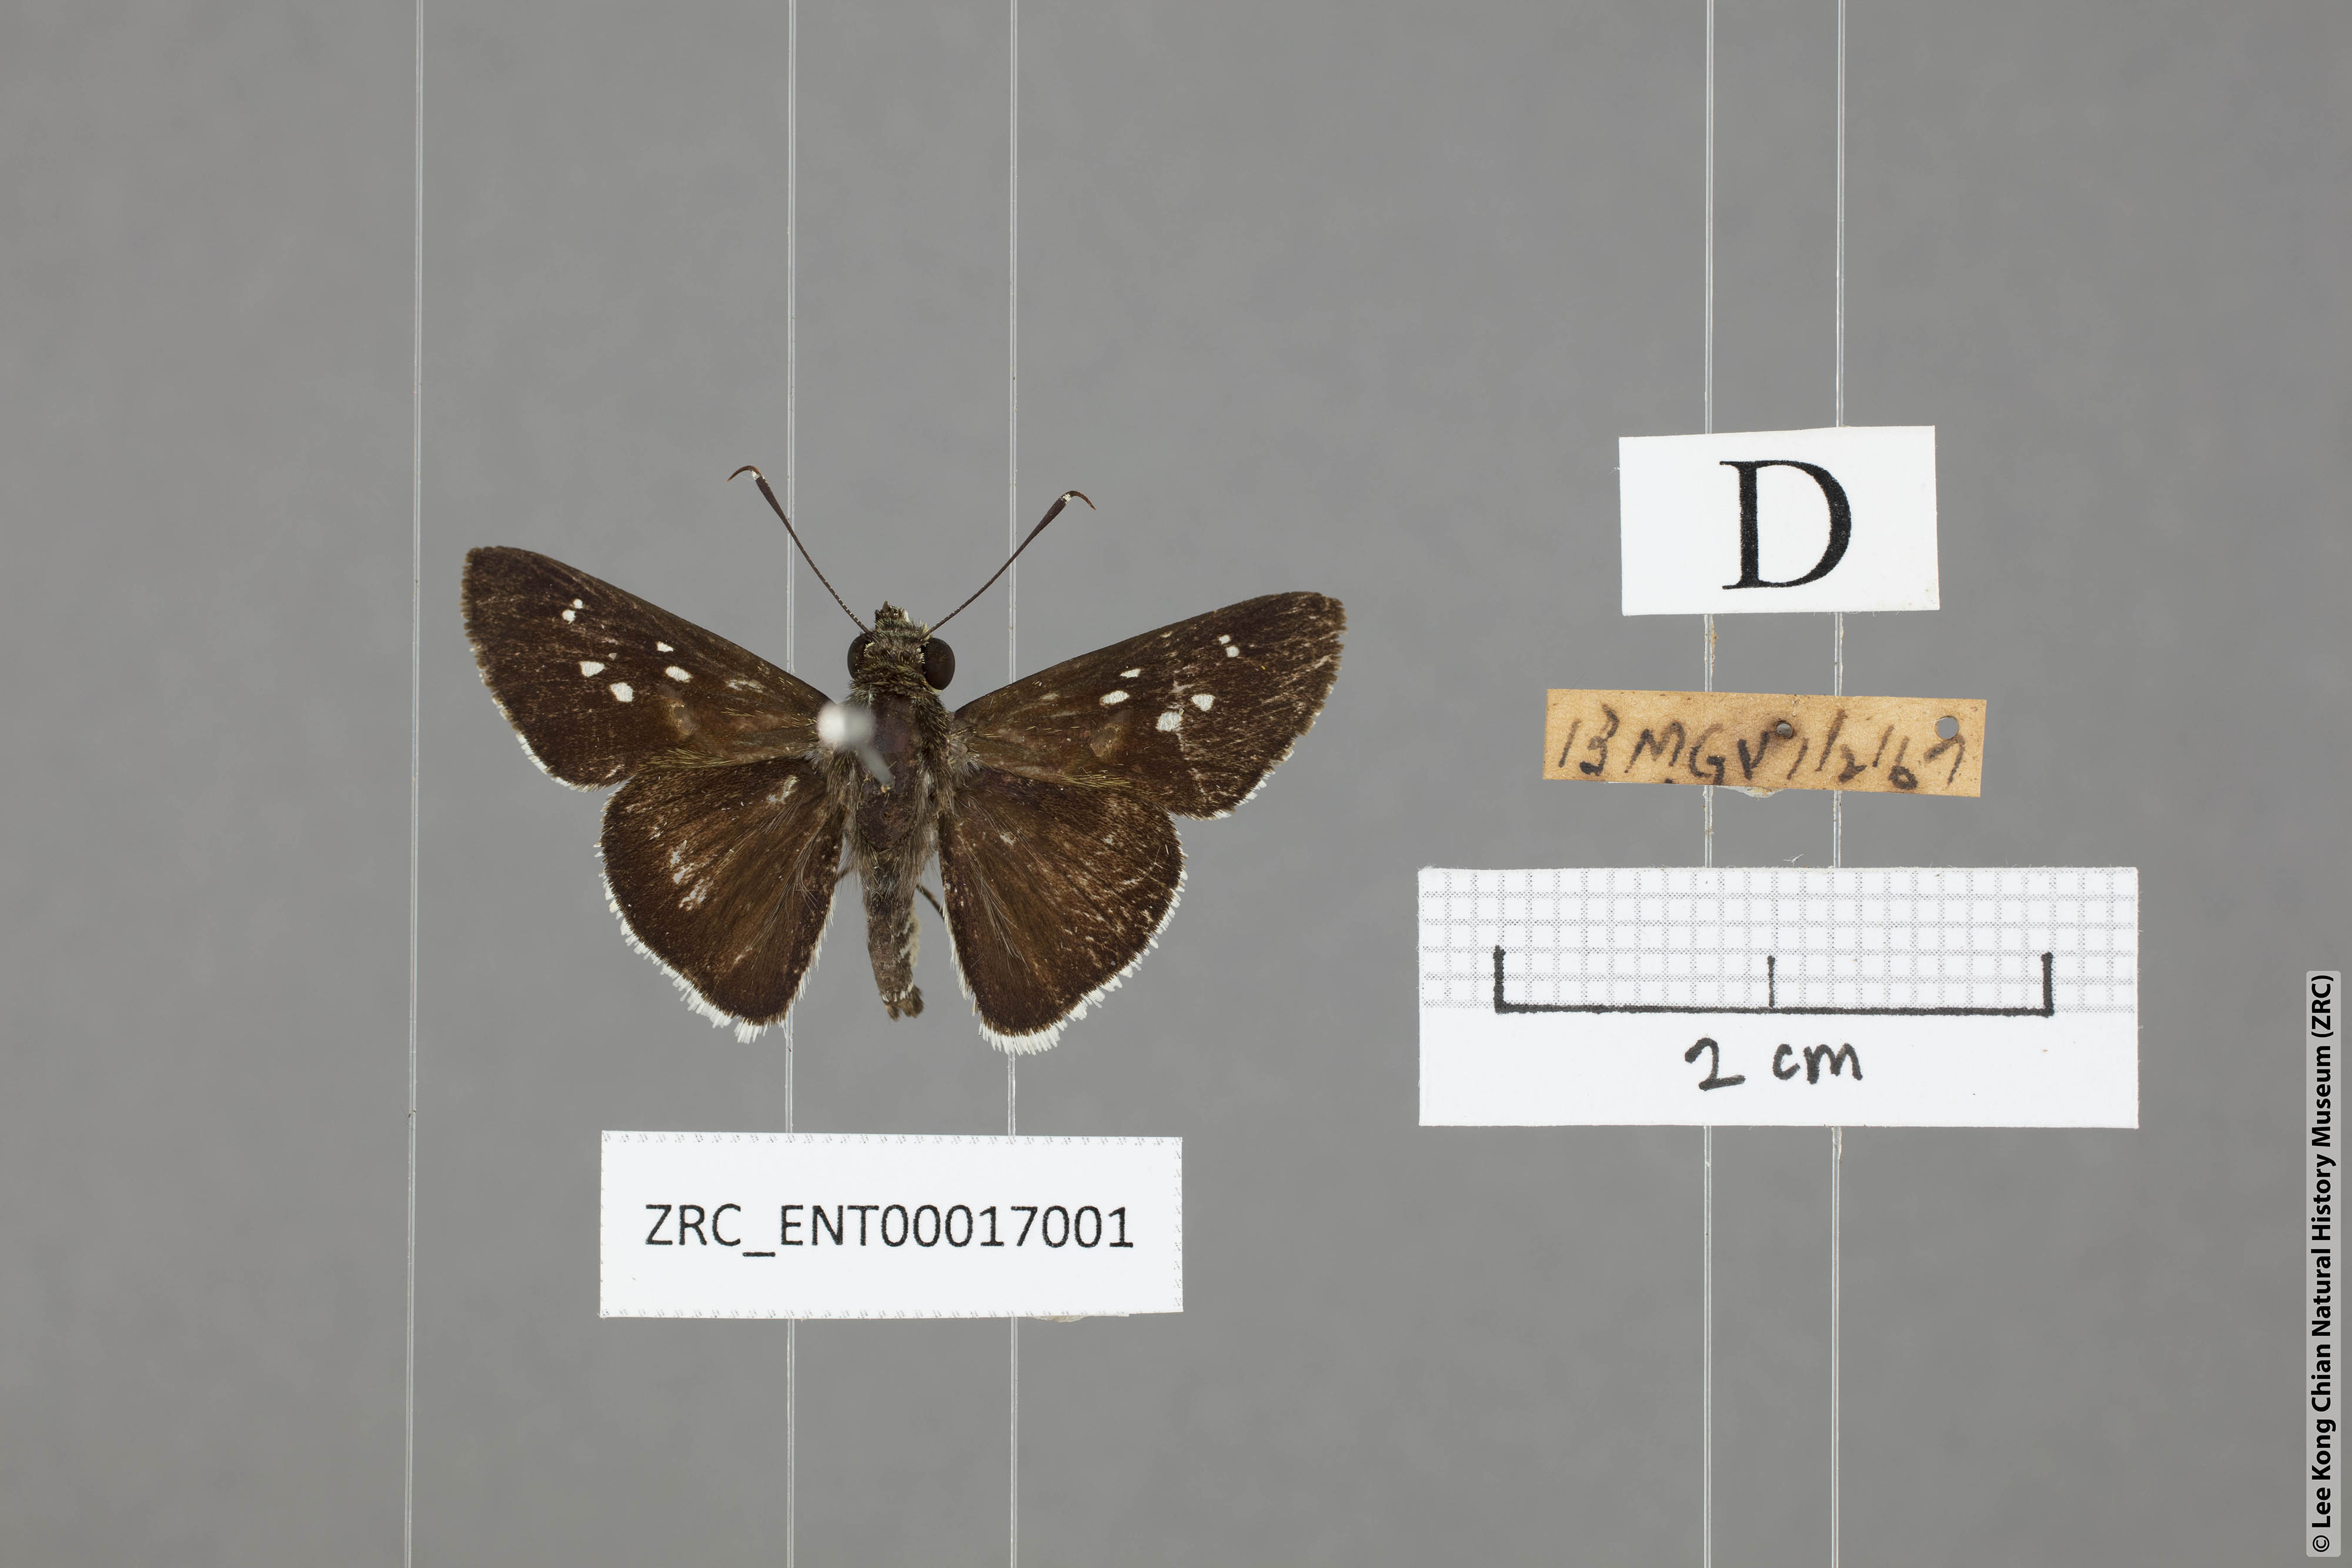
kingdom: Animalia
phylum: Arthropoda
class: Insecta
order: Lepidoptera
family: Hesperiidae
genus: Halpe
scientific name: Halpe insignis
